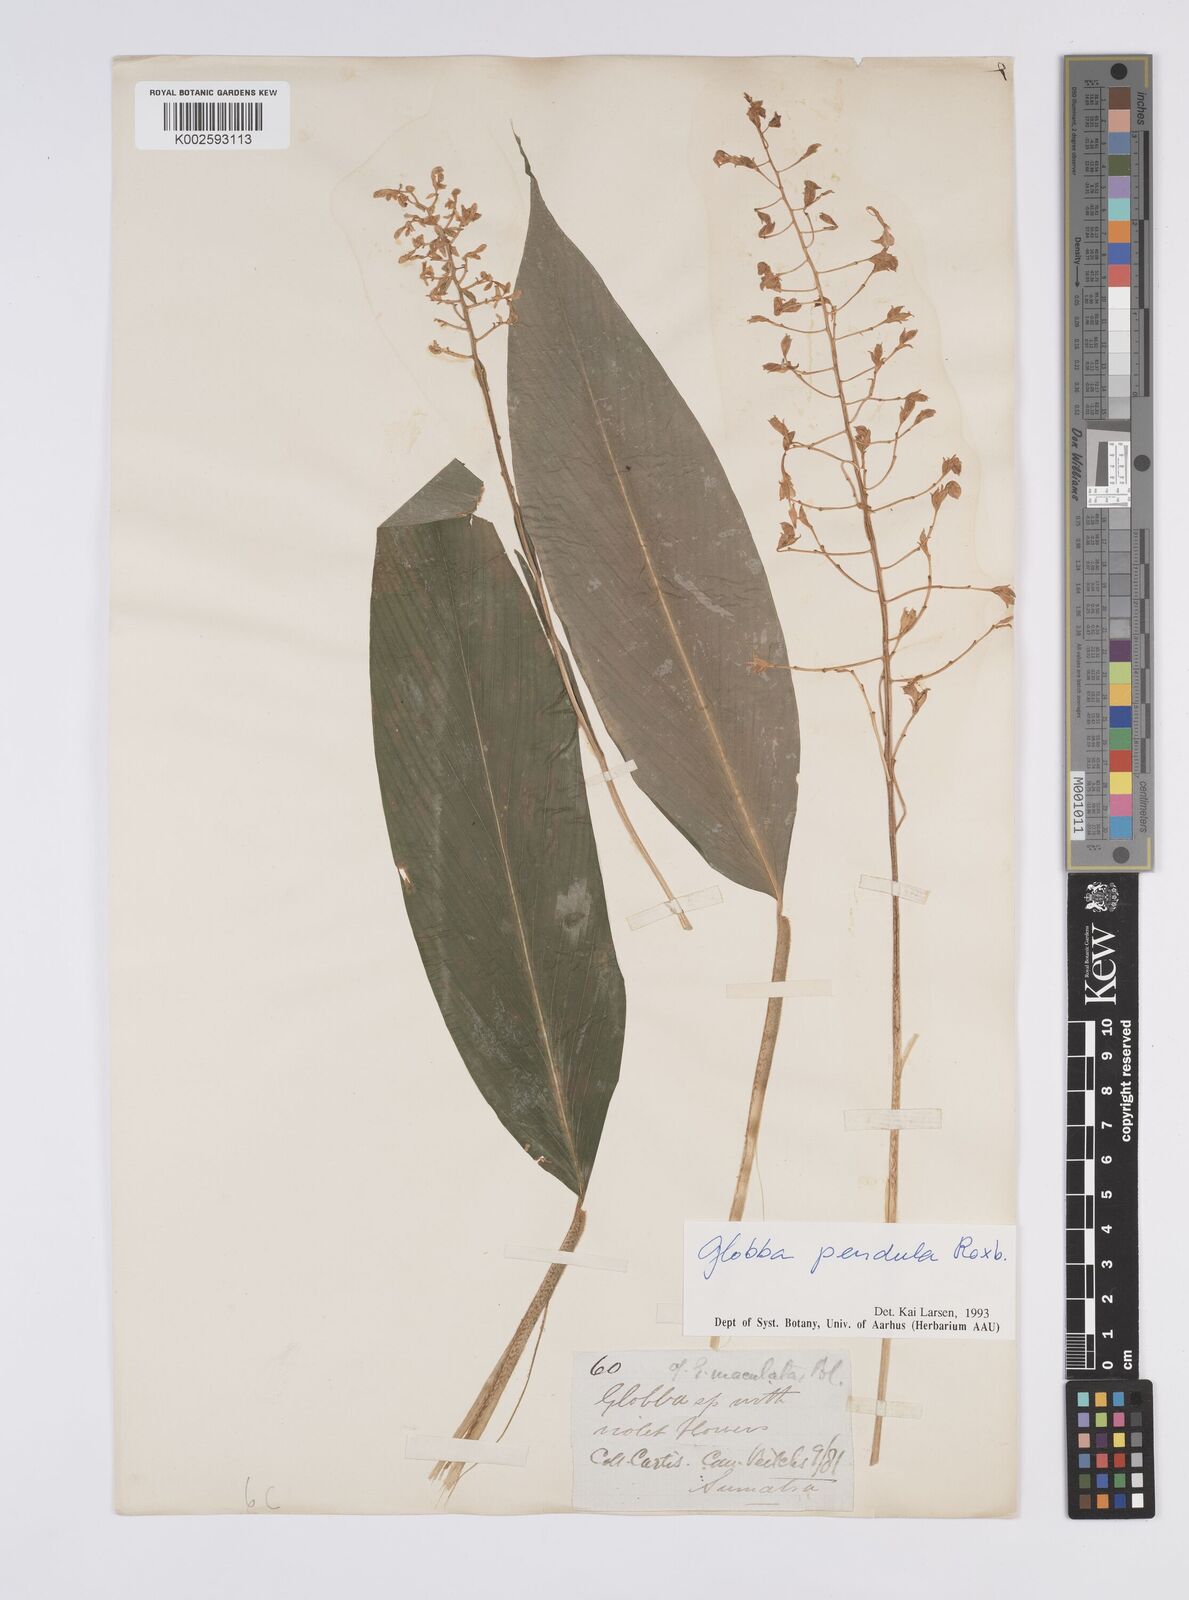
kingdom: Plantae
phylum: Tracheophyta
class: Liliopsida
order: Zingiberales
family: Zingiberaceae
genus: Globba
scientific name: Globba pendula
